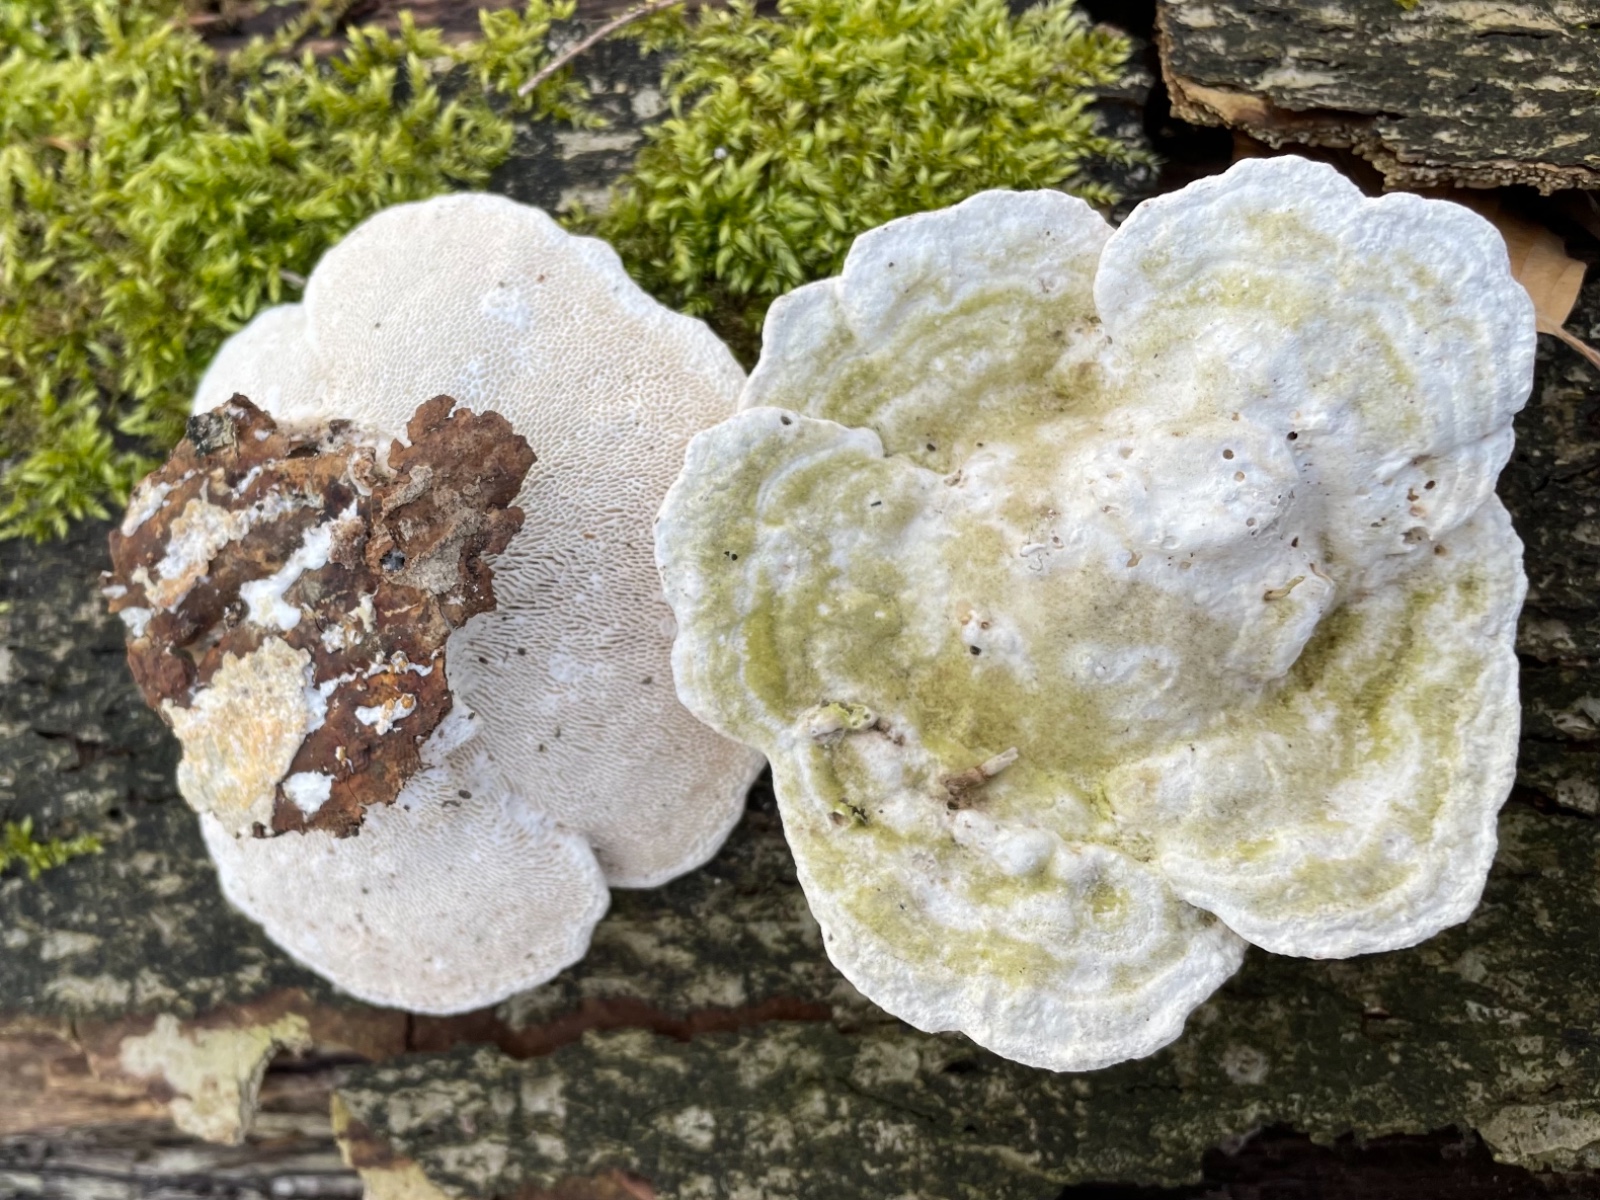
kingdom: Fungi
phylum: Basidiomycota
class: Agaricomycetes
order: Polyporales
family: Polyporaceae
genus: Trametes
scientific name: Trametes gibbosa
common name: puklet læderporesvamp
